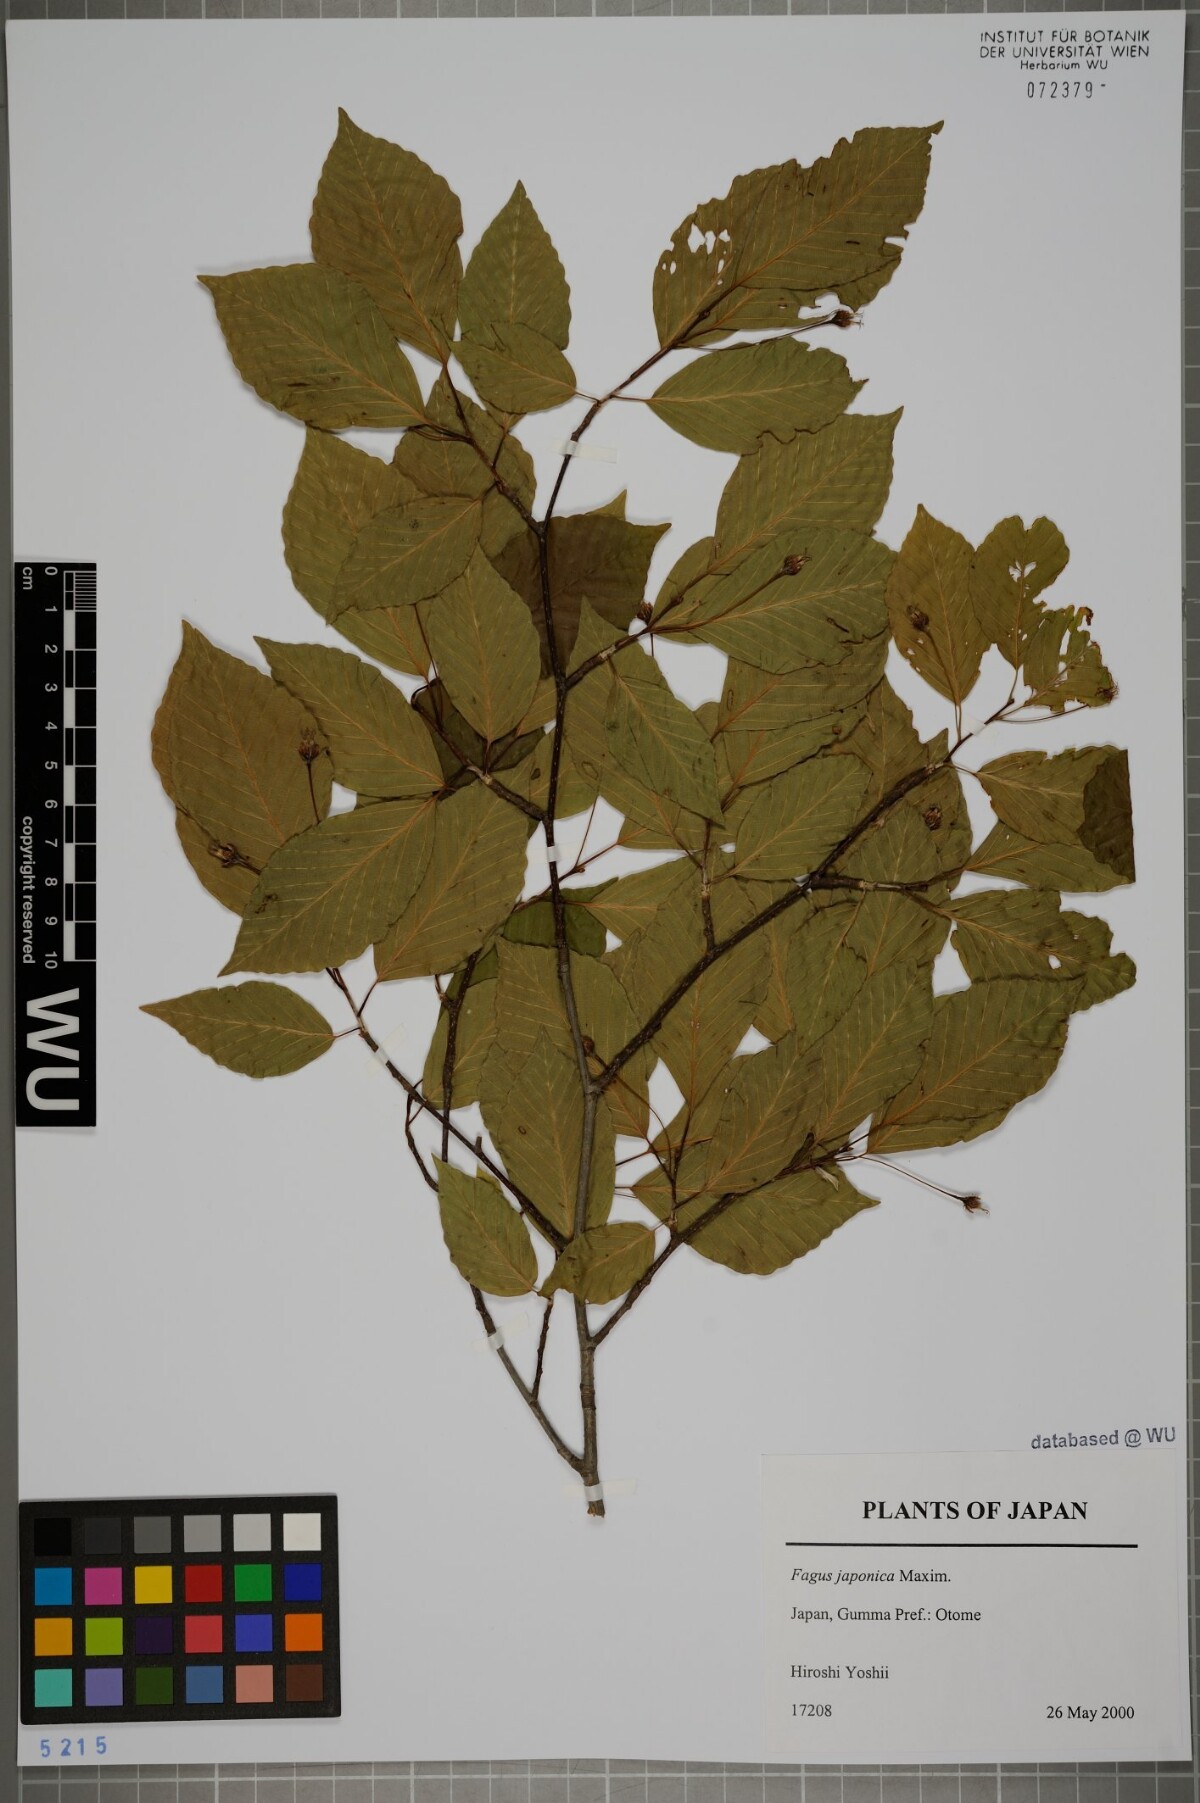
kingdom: Plantae
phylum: Tracheophyta
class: Magnoliopsida
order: Fagales
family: Fagaceae
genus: Fagus
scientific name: Fagus japonica
